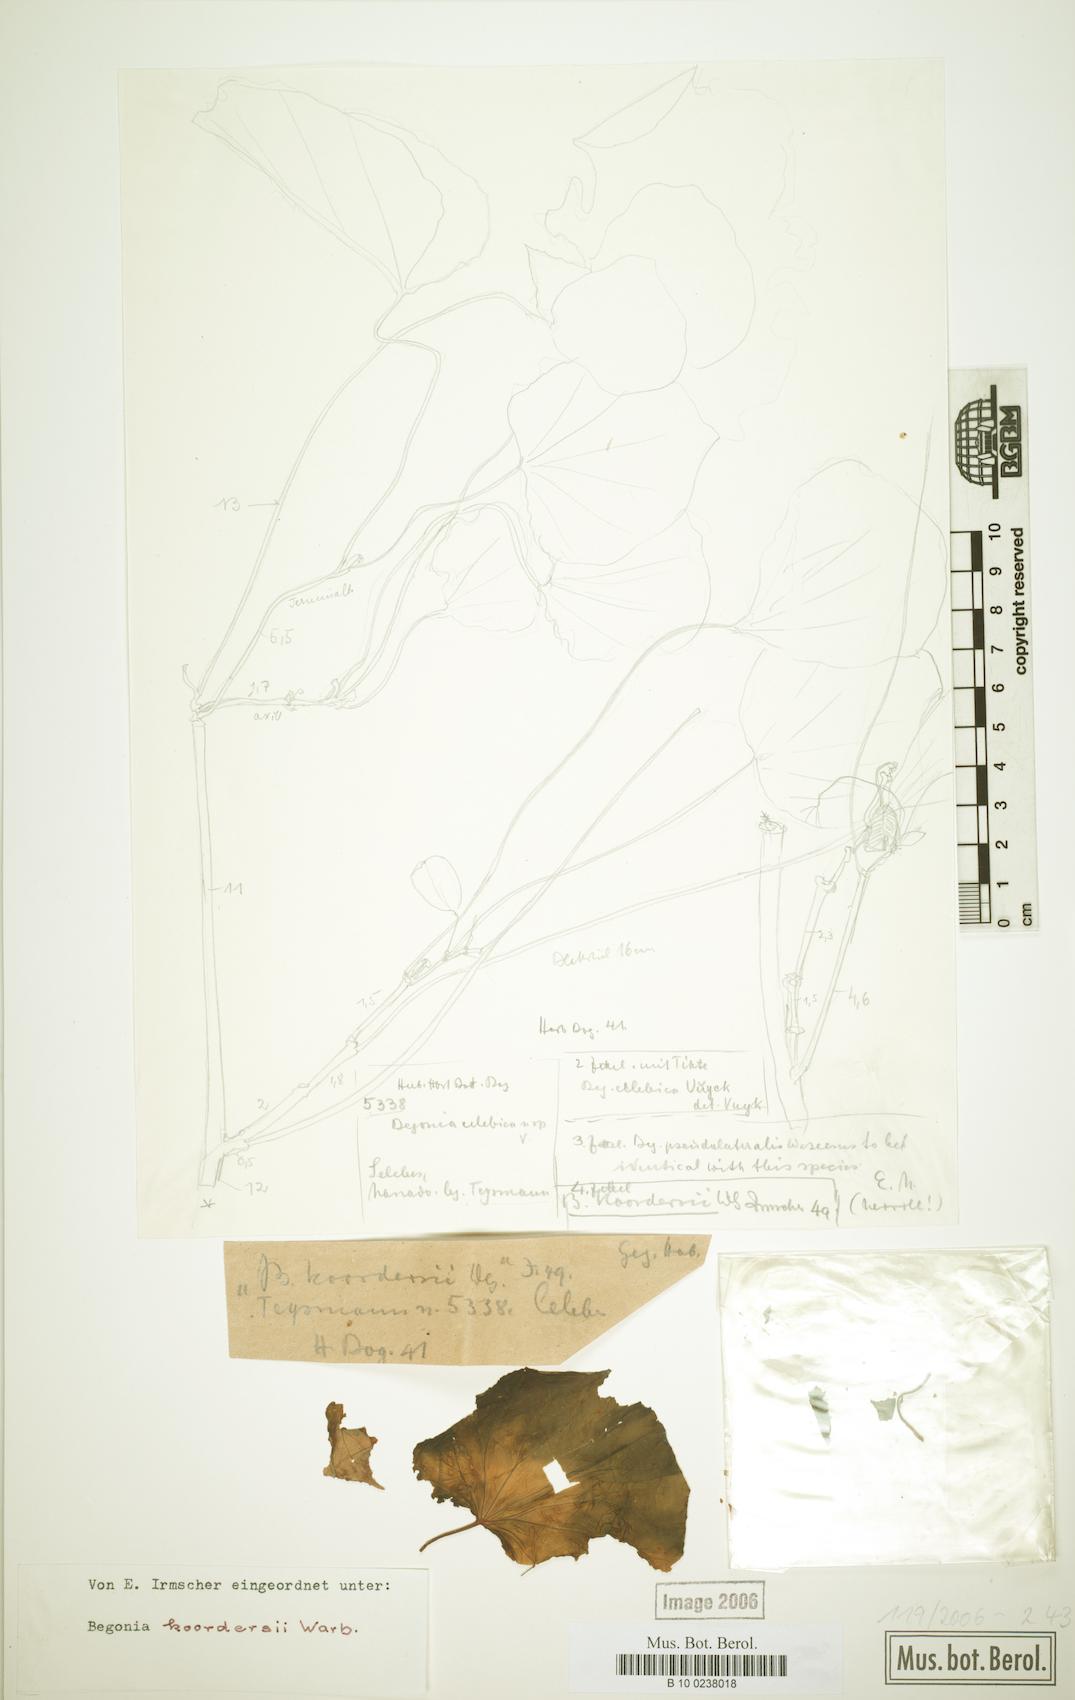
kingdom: Plantae
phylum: Tracheophyta
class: Magnoliopsida
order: Cucurbitales
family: Begoniaceae
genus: Begonia
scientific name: Begonia koordersii
